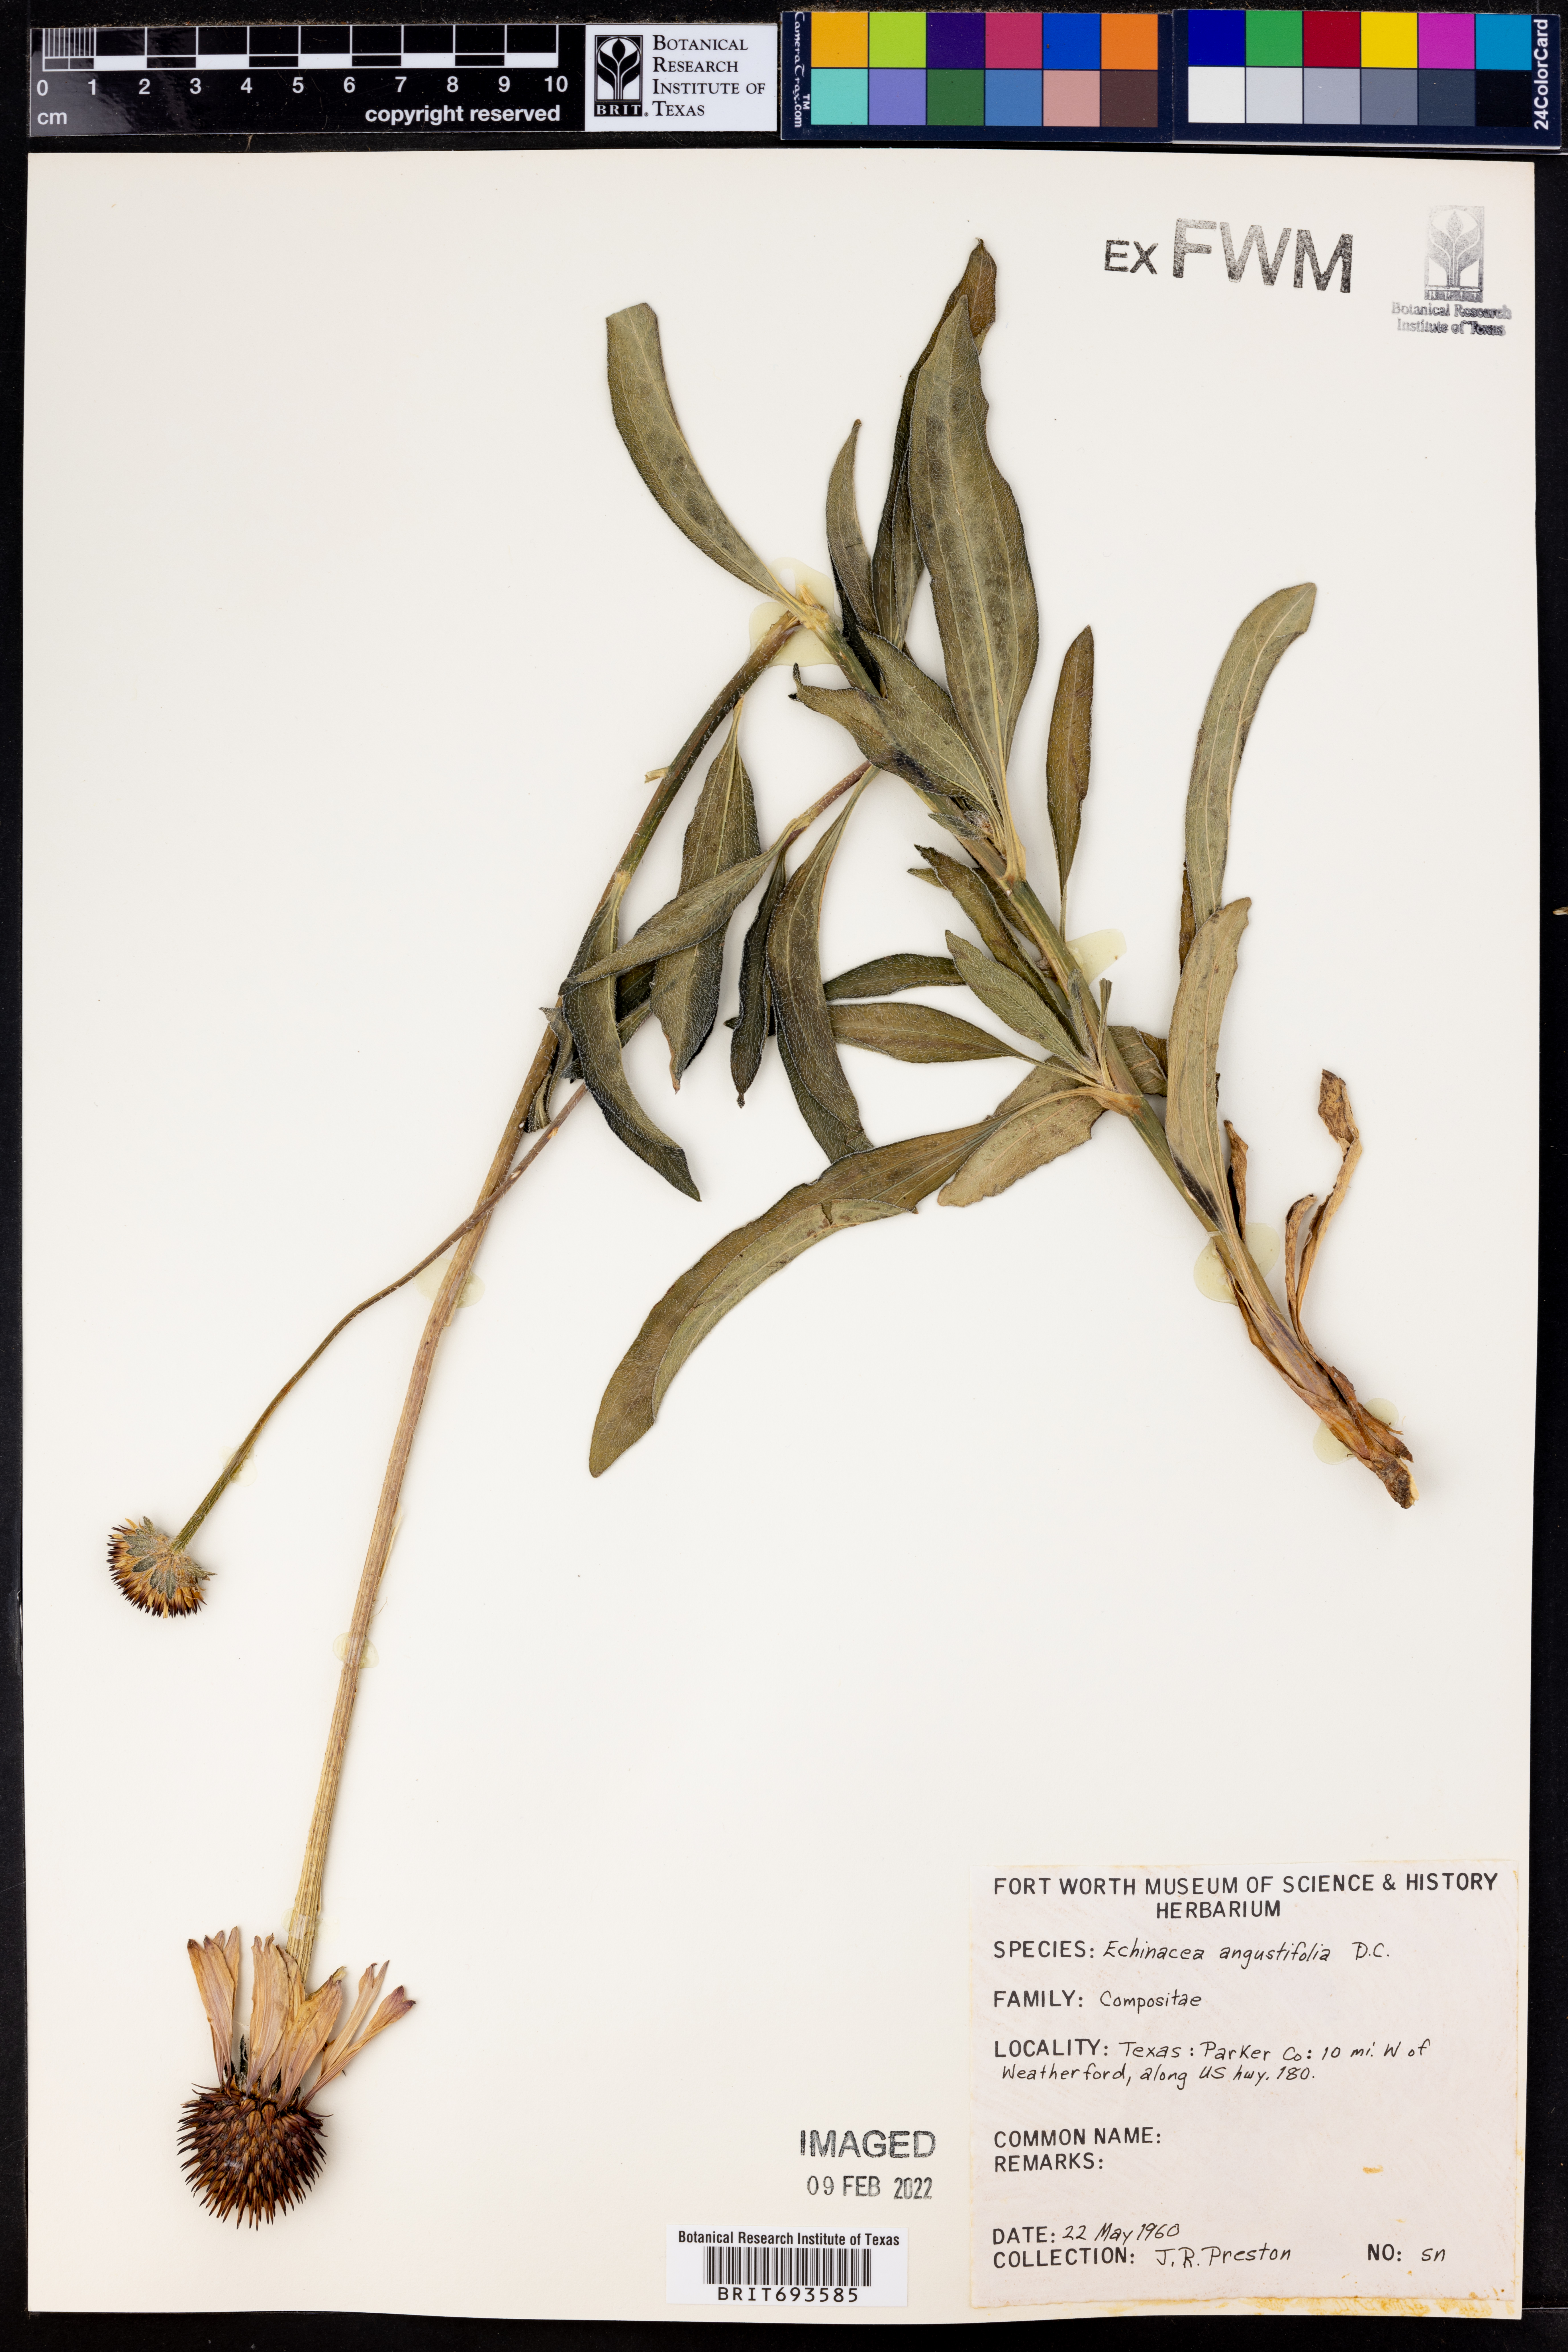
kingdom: Plantae
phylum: Tracheophyta
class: Magnoliopsida
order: Asterales
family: Asteraceae
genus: Echinacea
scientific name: Echinacea angustifolia
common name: Black-sampson echinacea
